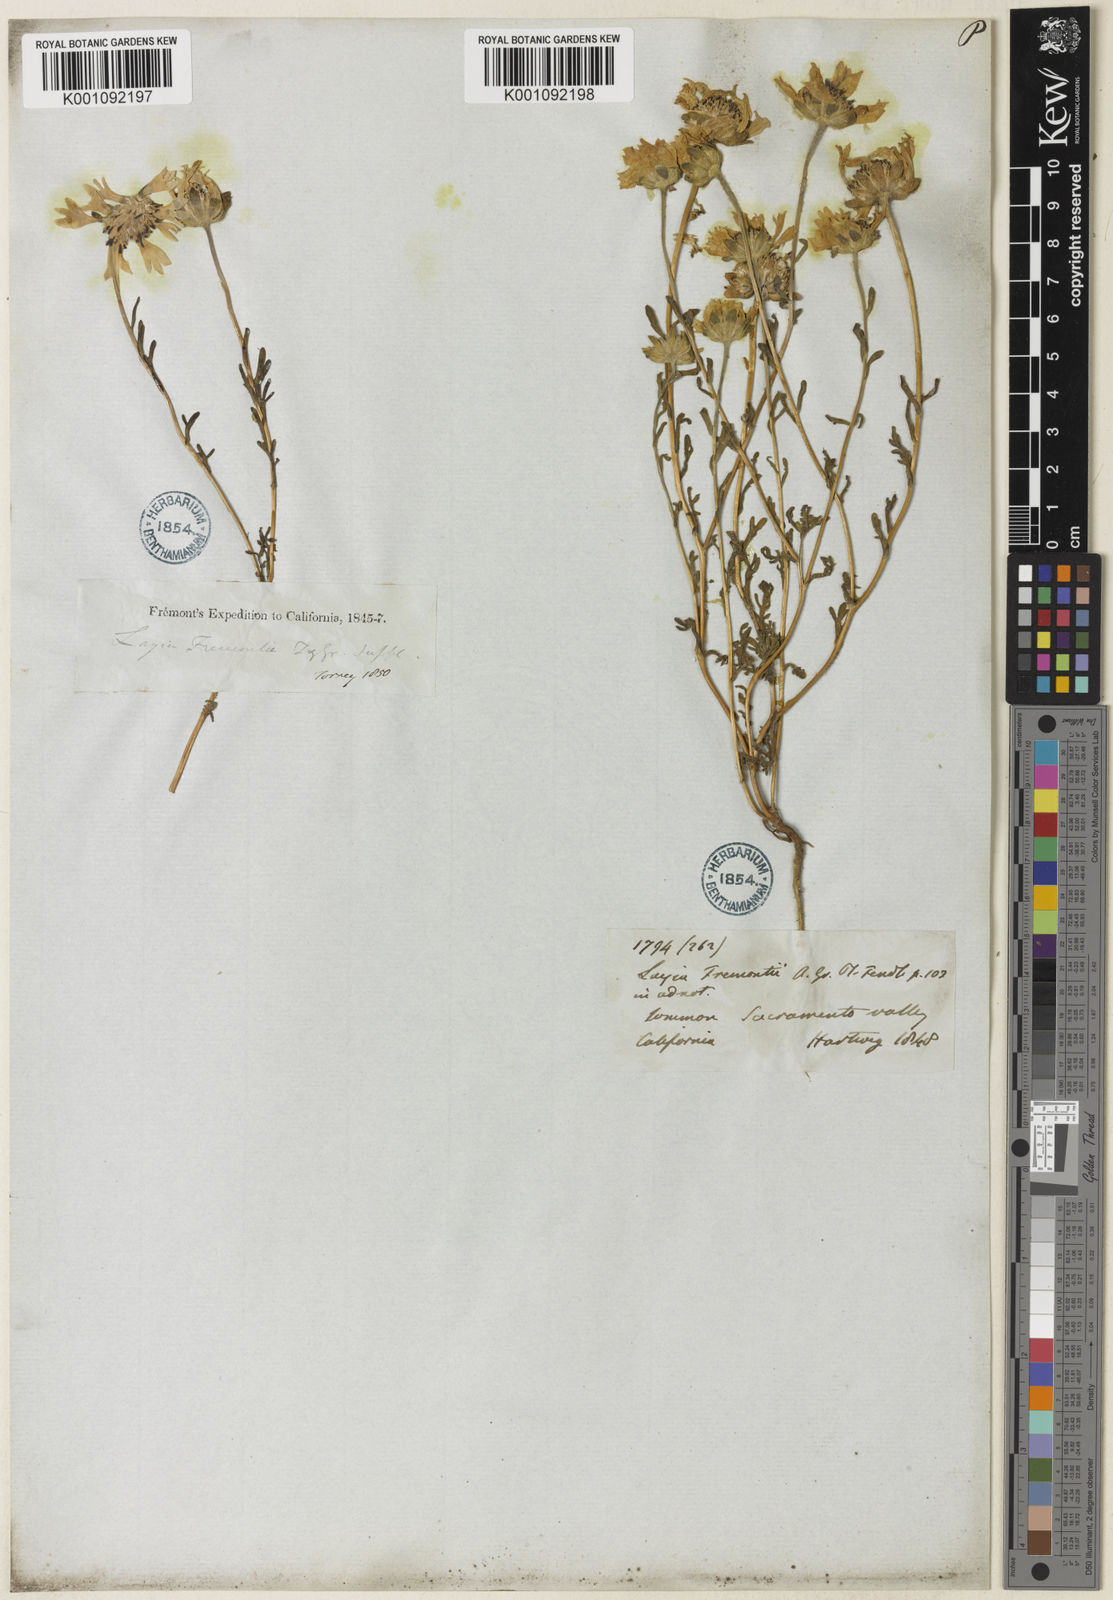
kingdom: Plantae
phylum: Tracheophyta
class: Magnoliopsida
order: Asterales
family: Asteraceae
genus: Layia
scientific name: Layia fremontii
